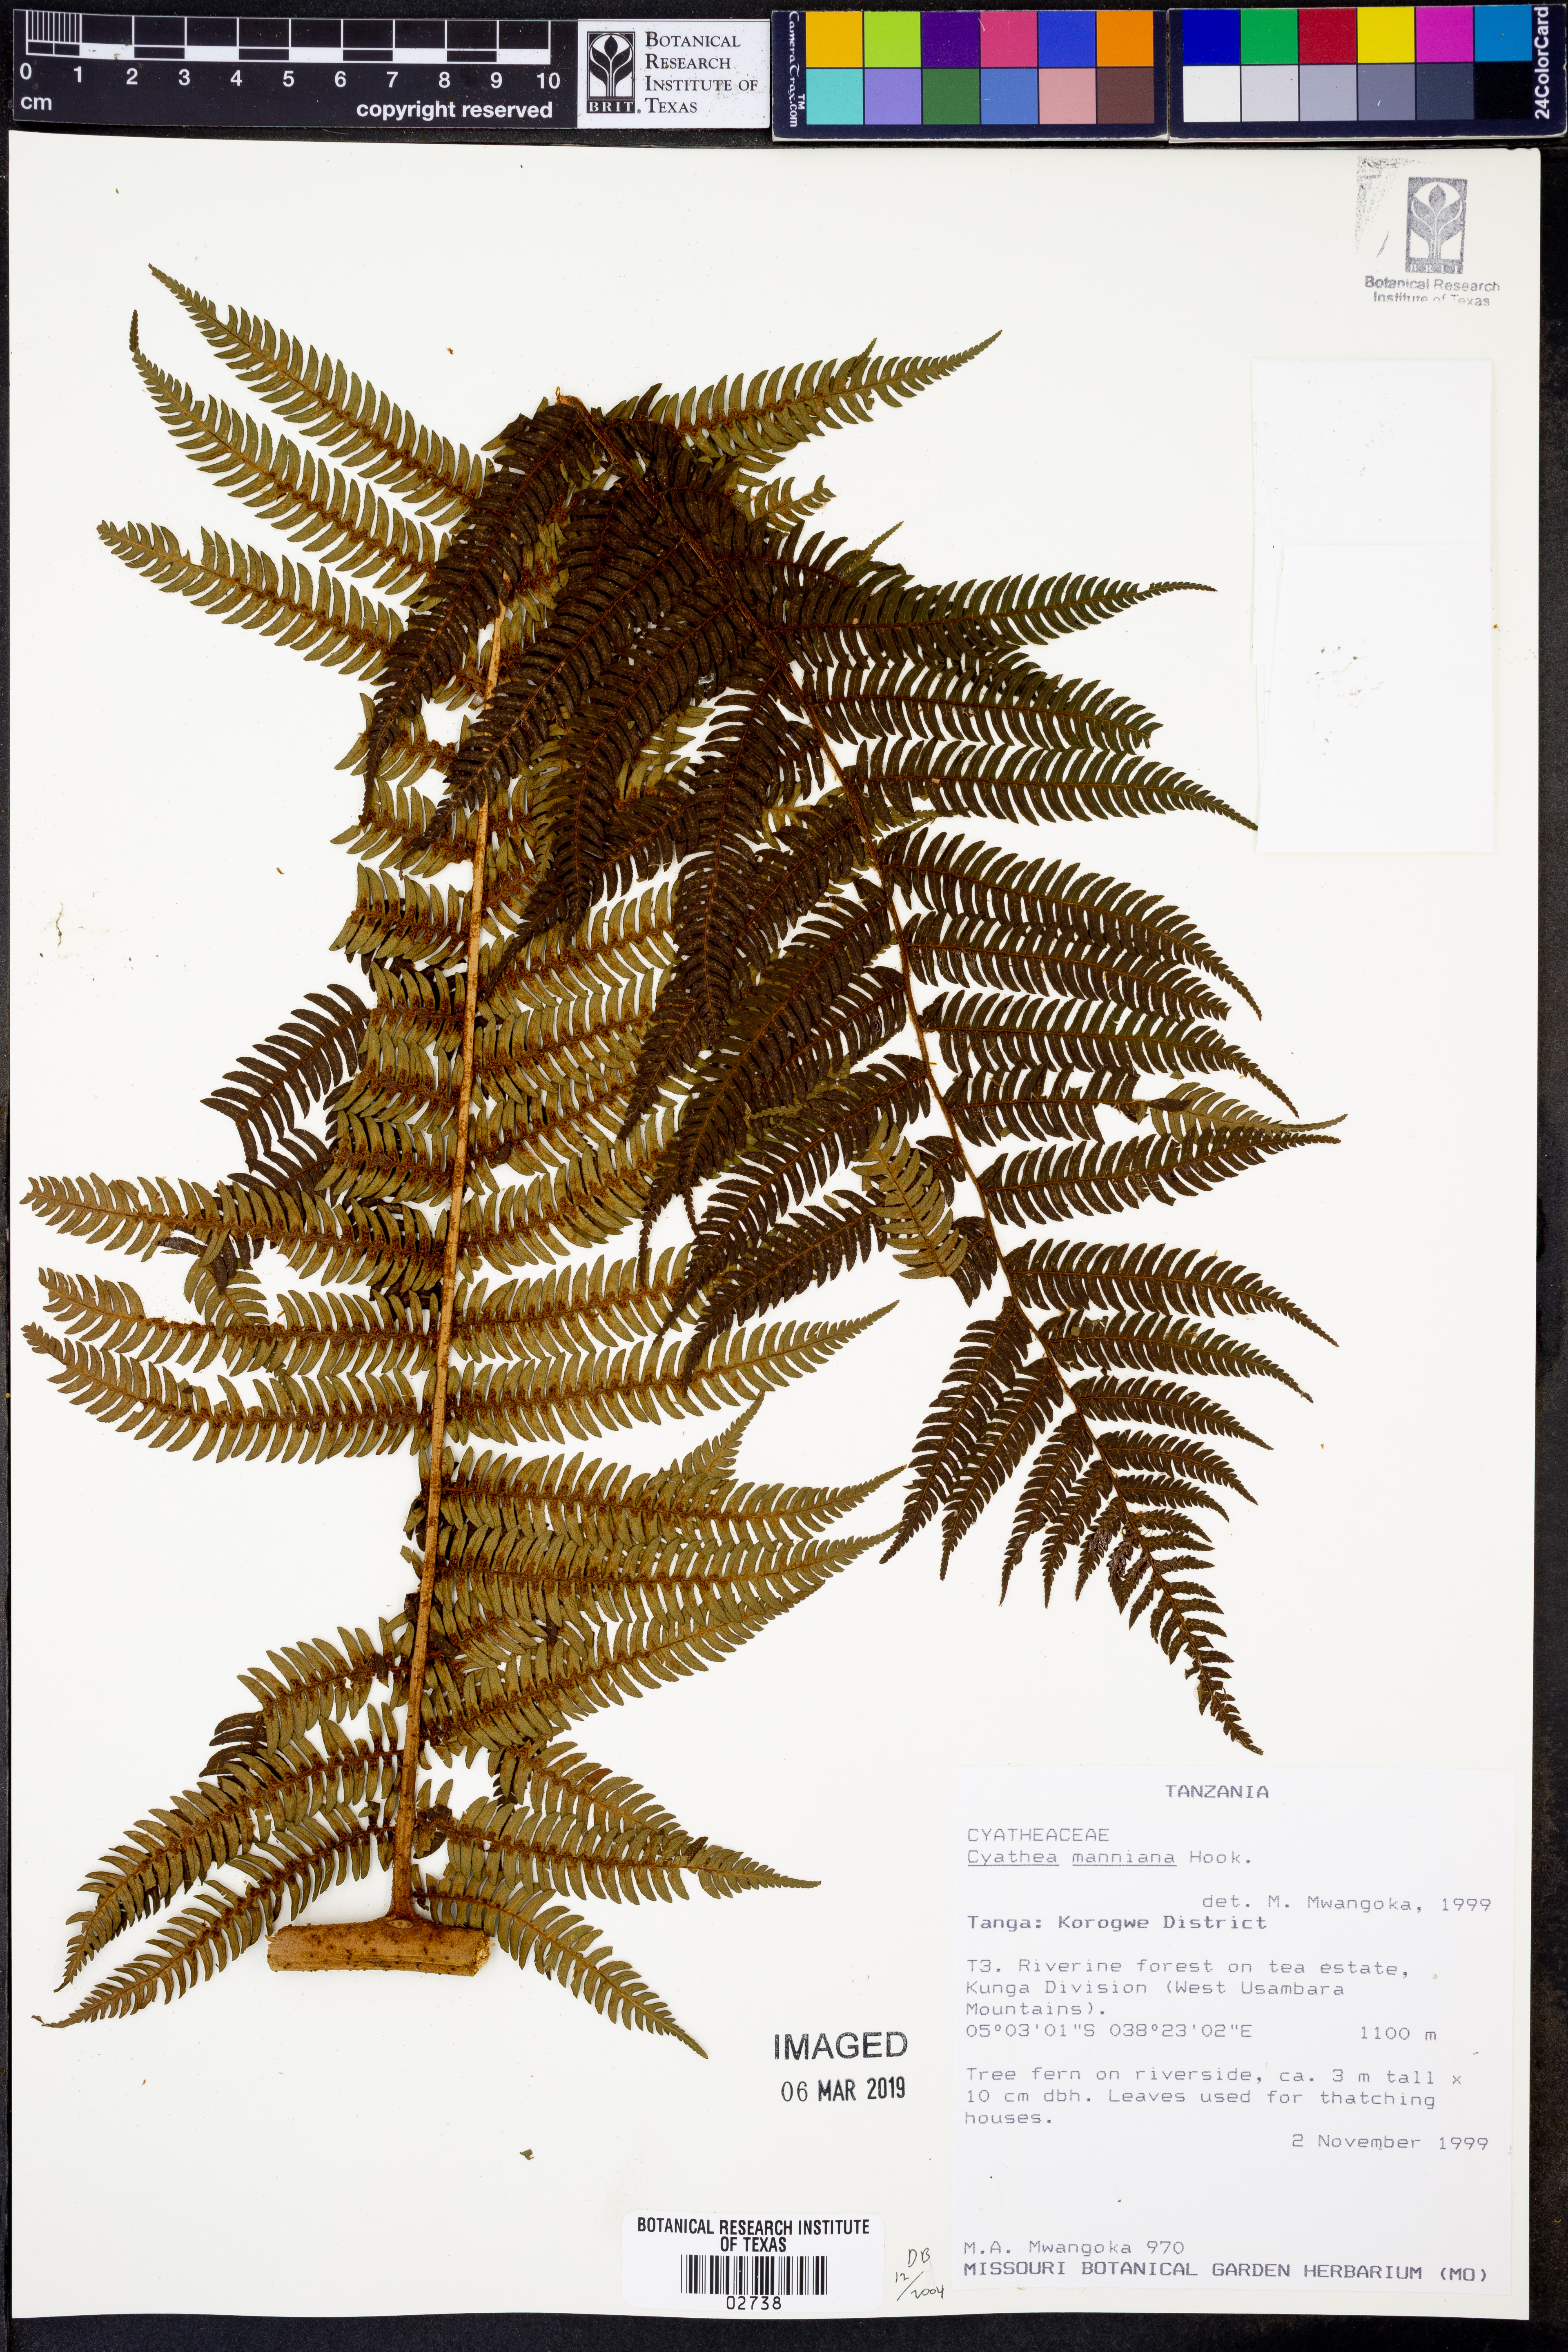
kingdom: Plantae
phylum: Tracheophyta
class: Polypodiopsida
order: Cyatheales
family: Cyatheaceae
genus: Alsophila
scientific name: Alsophila manniana
